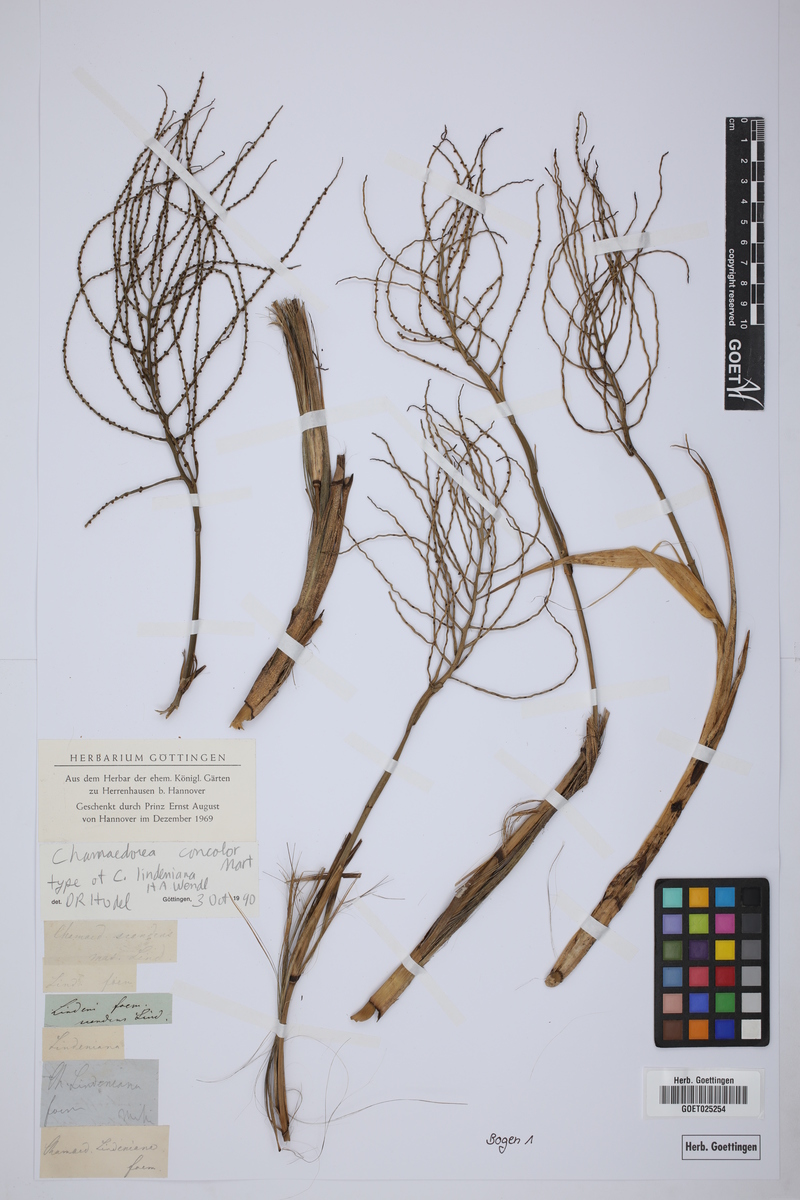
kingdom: Plantae
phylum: Tracheophyta
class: Liliopsida
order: Arecales
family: Arecaceae
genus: Chamaedorea
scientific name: Chamaedorea pinnatifrons
